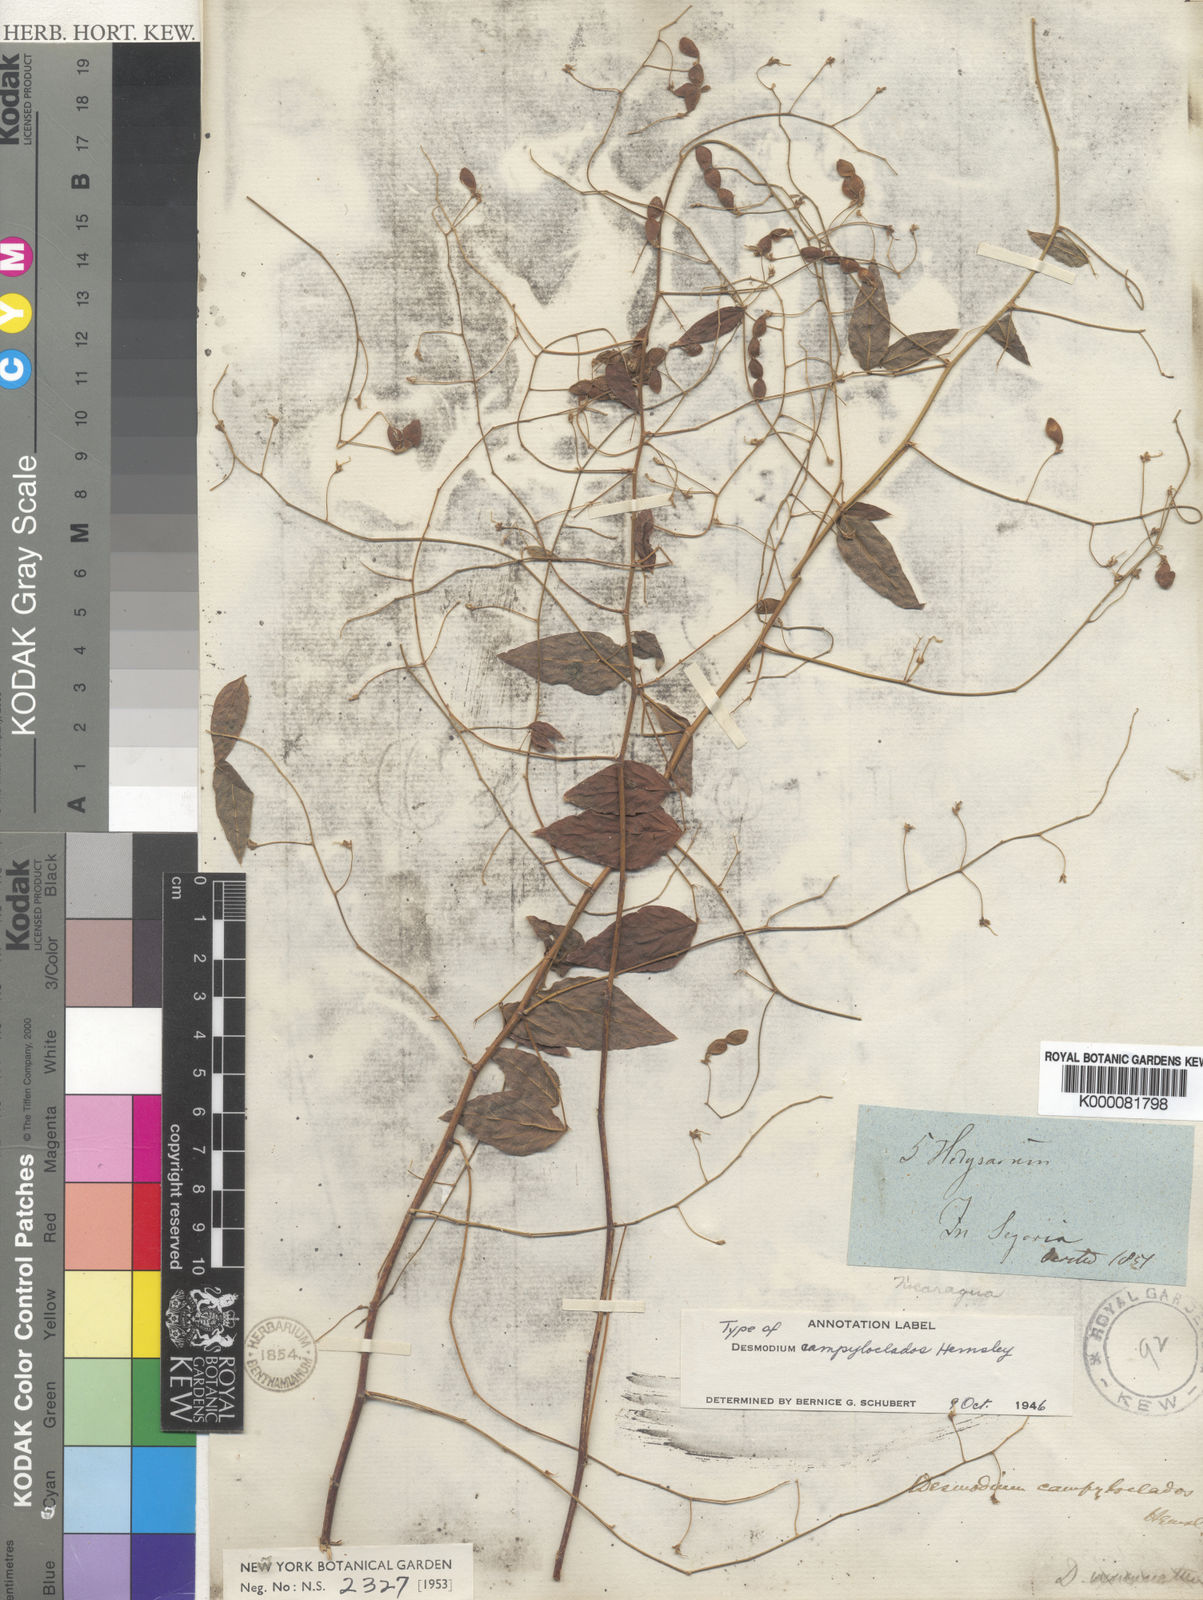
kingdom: Plantae
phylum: Tracheophyta
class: Magnoliopsida
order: Fabales
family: Fabaceae
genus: Desmodium
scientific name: Desmodium campyloclados
